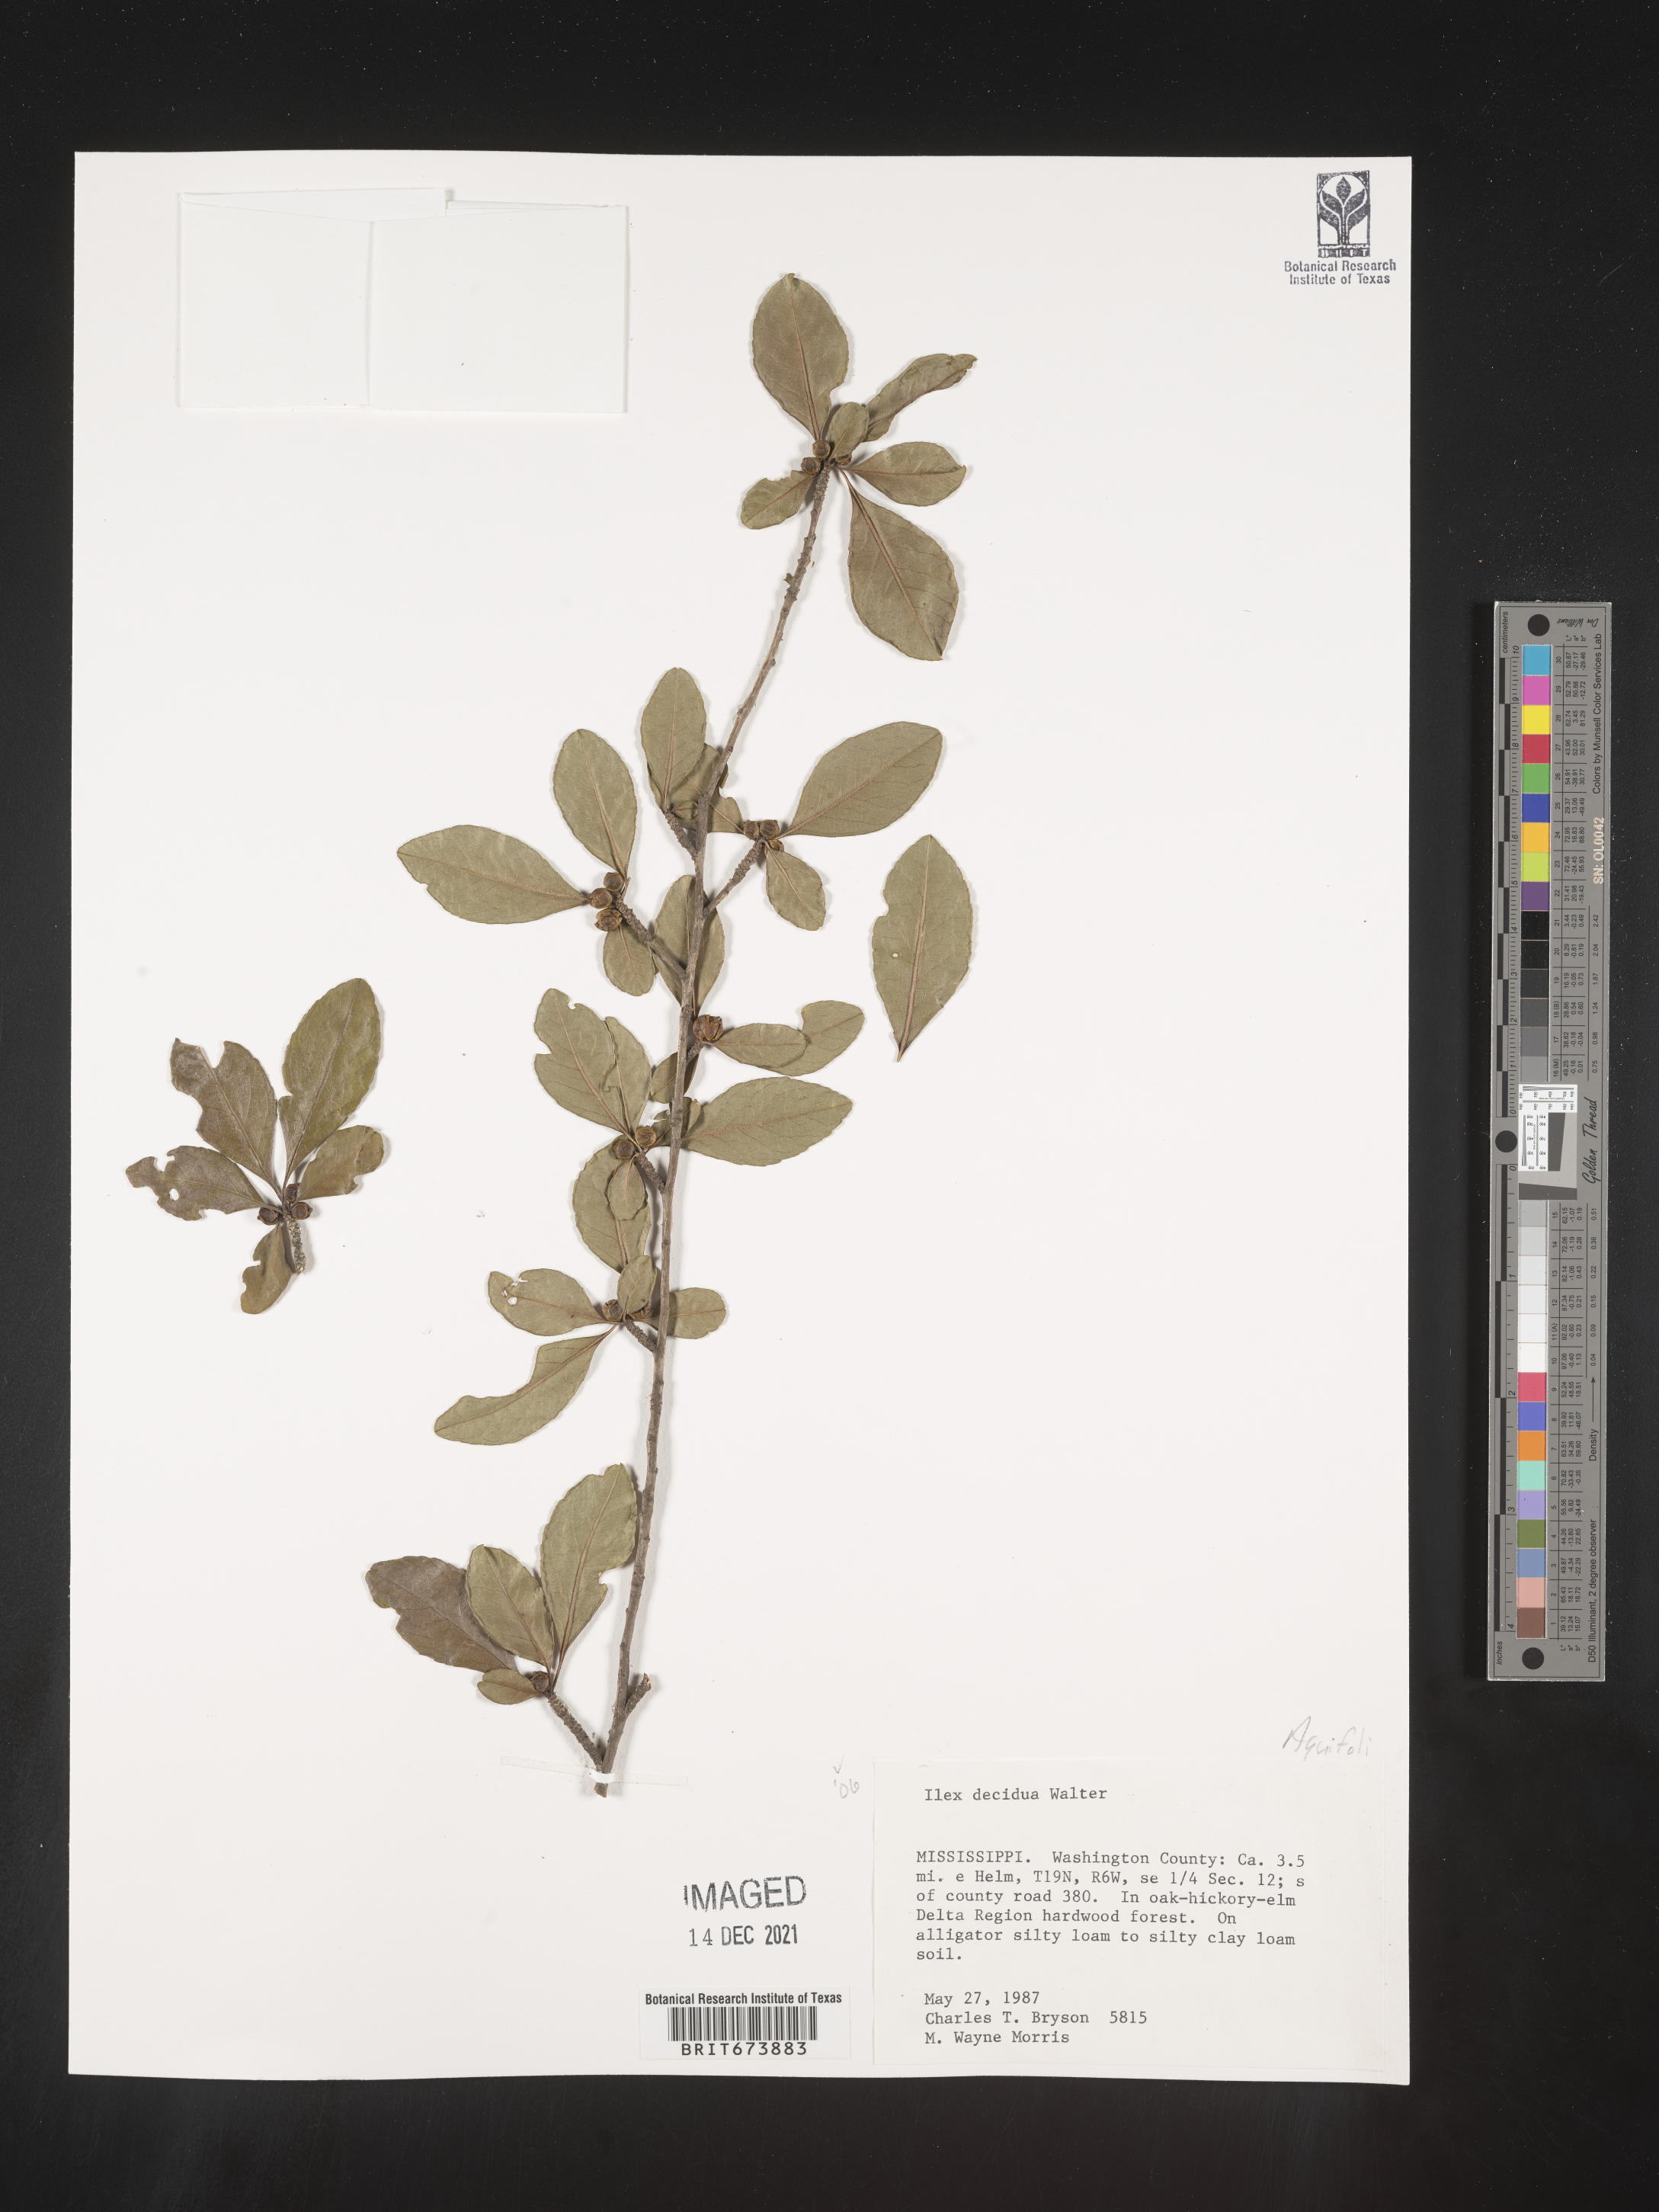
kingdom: Plantae
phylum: Tracheophyta
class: Magnoliopsida
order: Aquifoliales
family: Aquifoliaceae
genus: Ilex
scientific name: Ilex decidua
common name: Possum-haw
